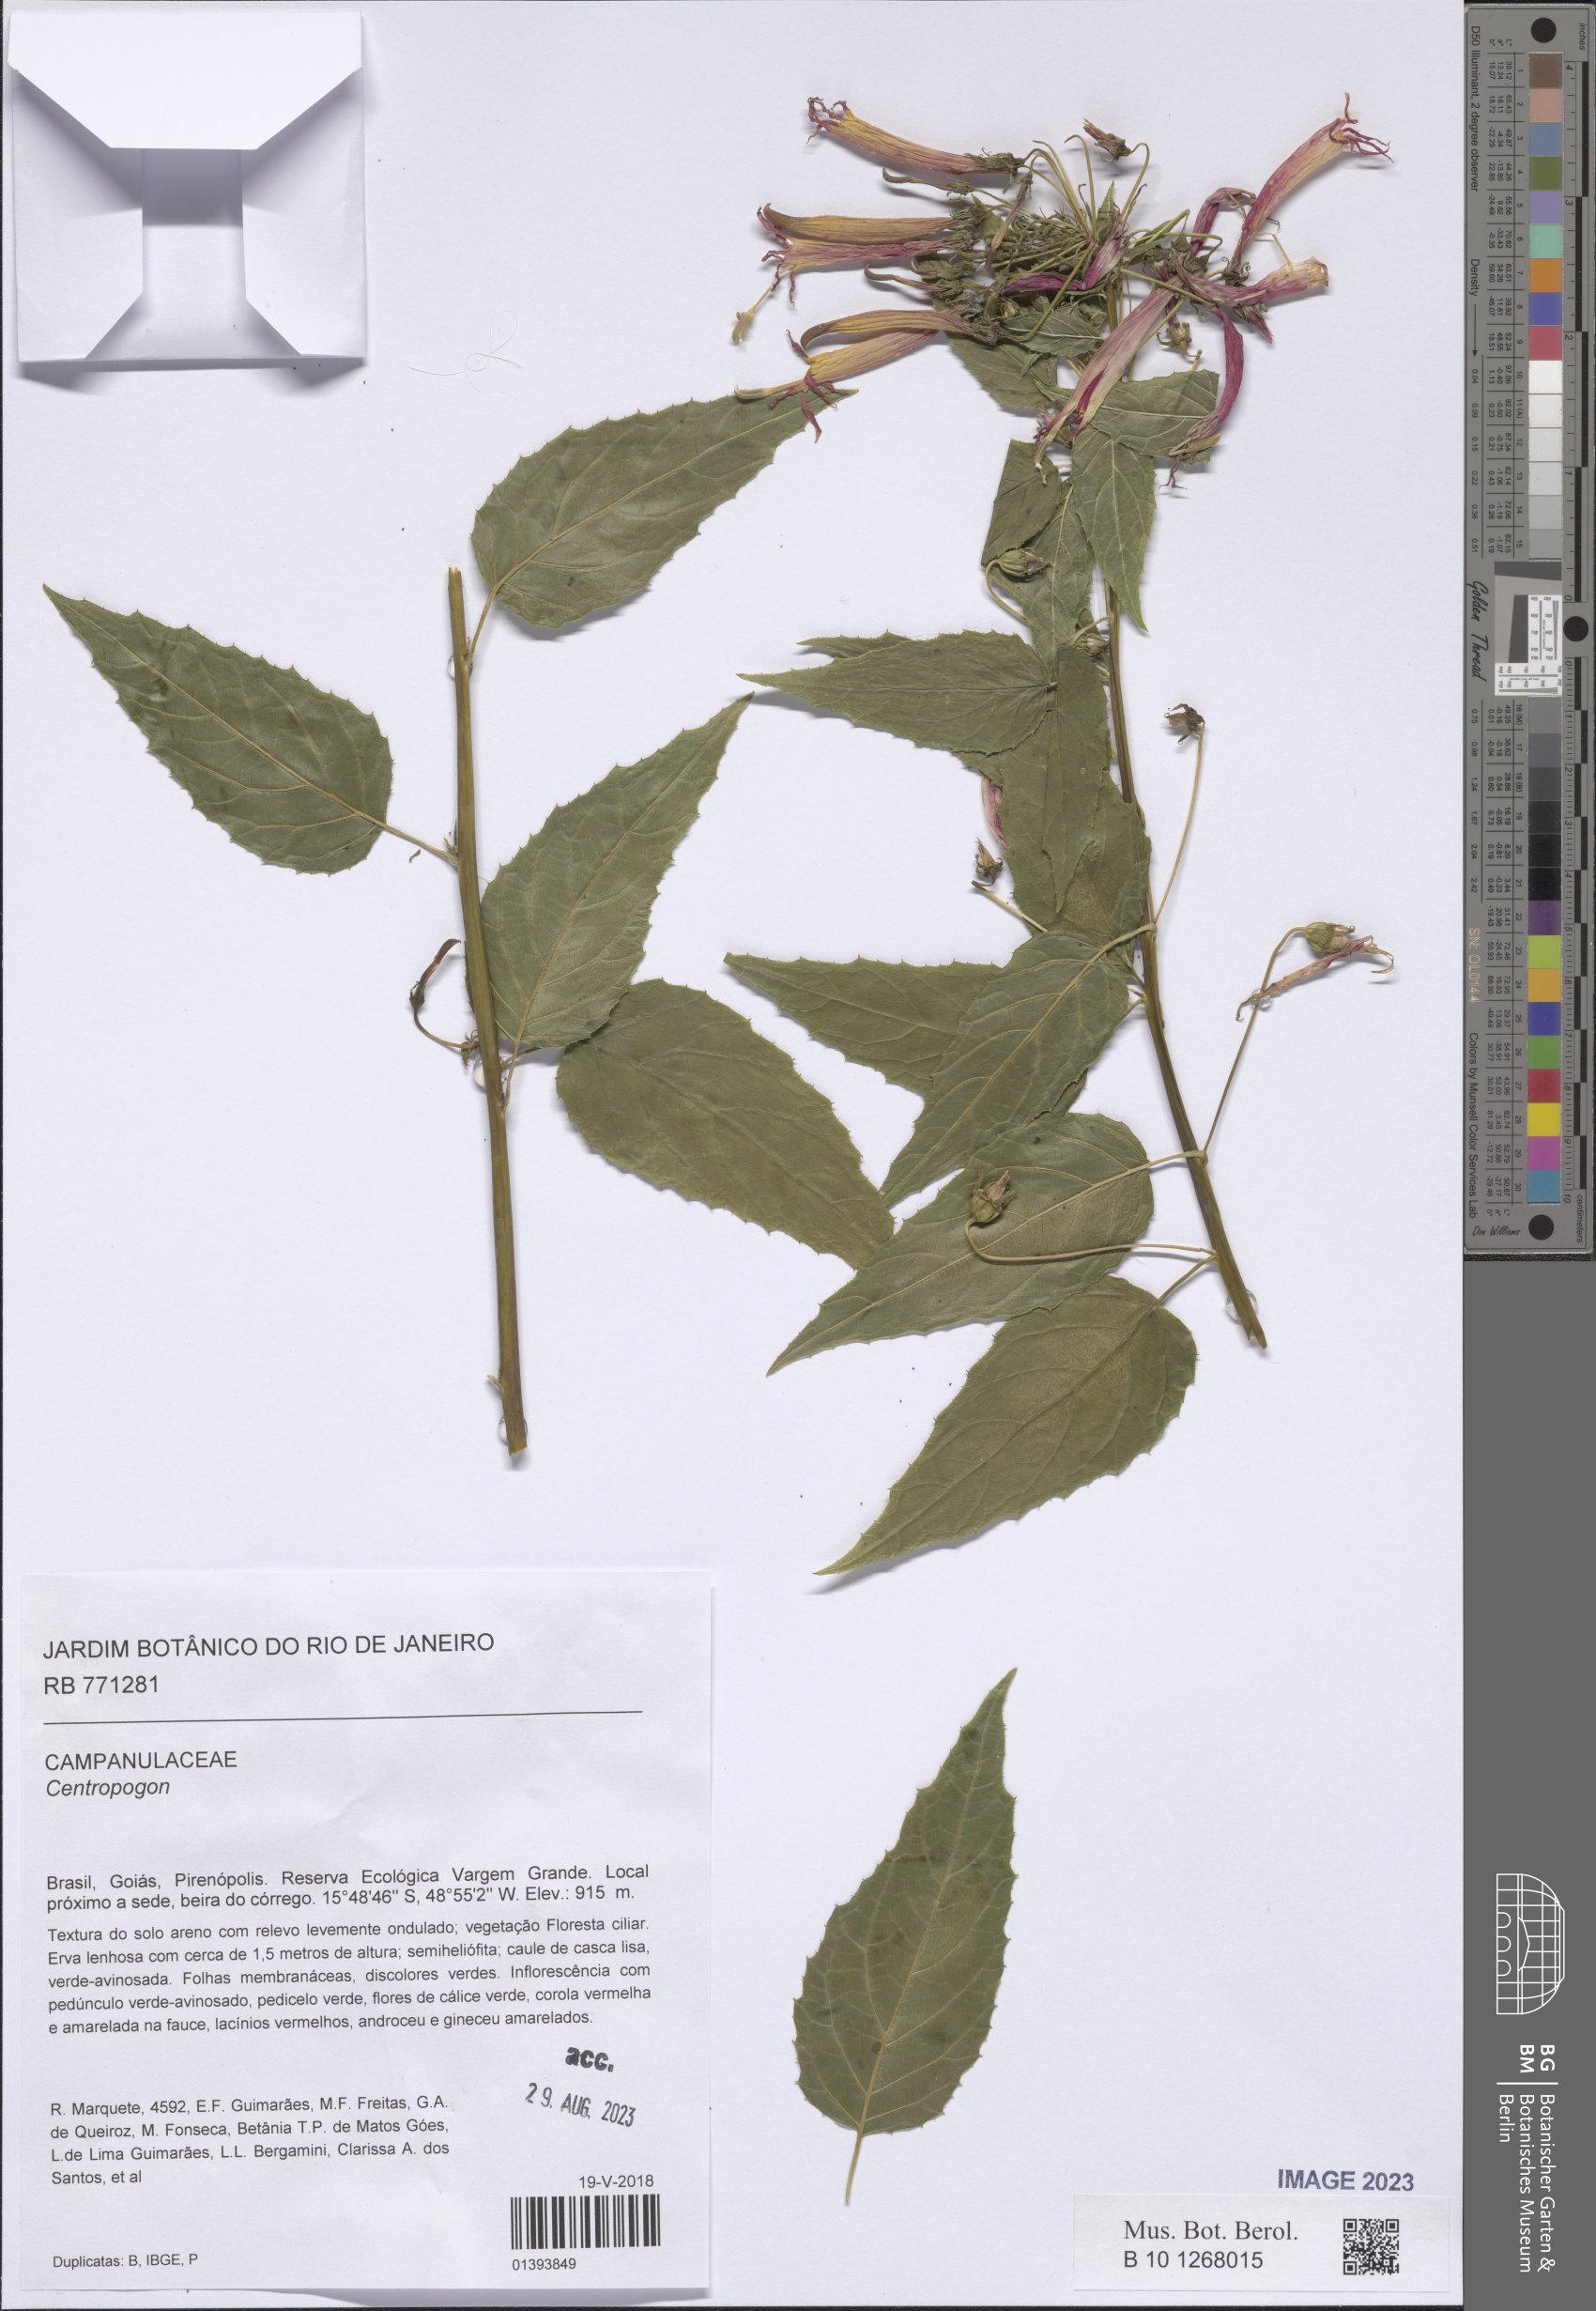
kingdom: Plantae
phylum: Tracheophyta
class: Magnoliopsida
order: Asterales
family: Campanulaceae
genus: Centropogon
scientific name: Centropogon
